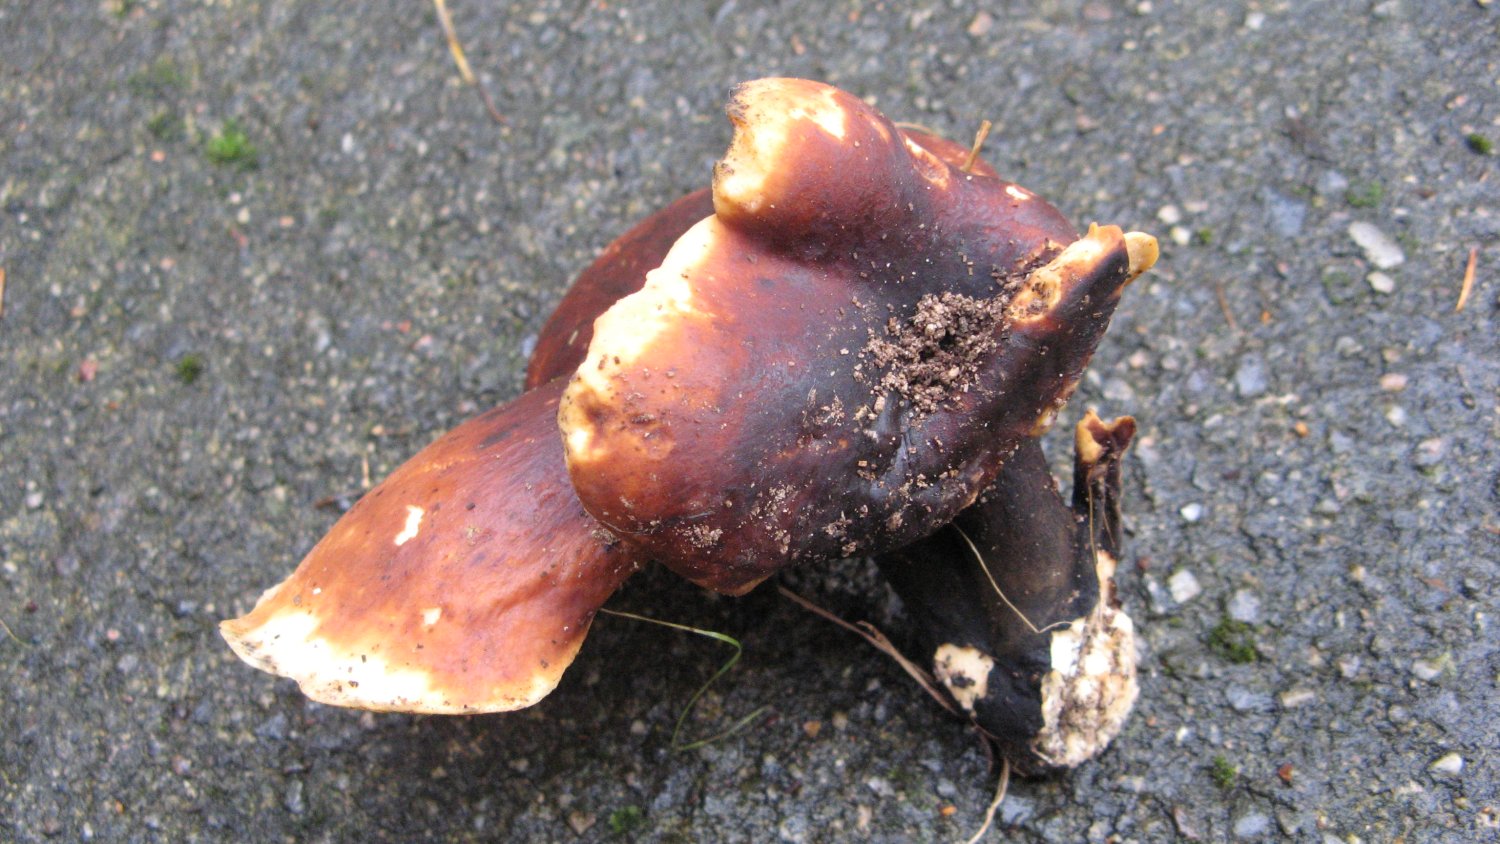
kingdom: Fungi
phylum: Basidiomycota
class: Agaricomycetes
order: Polyporales
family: Polyporaceae
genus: Picipes
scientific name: Picipes badius
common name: kastaniebrun stilkporesvamp
